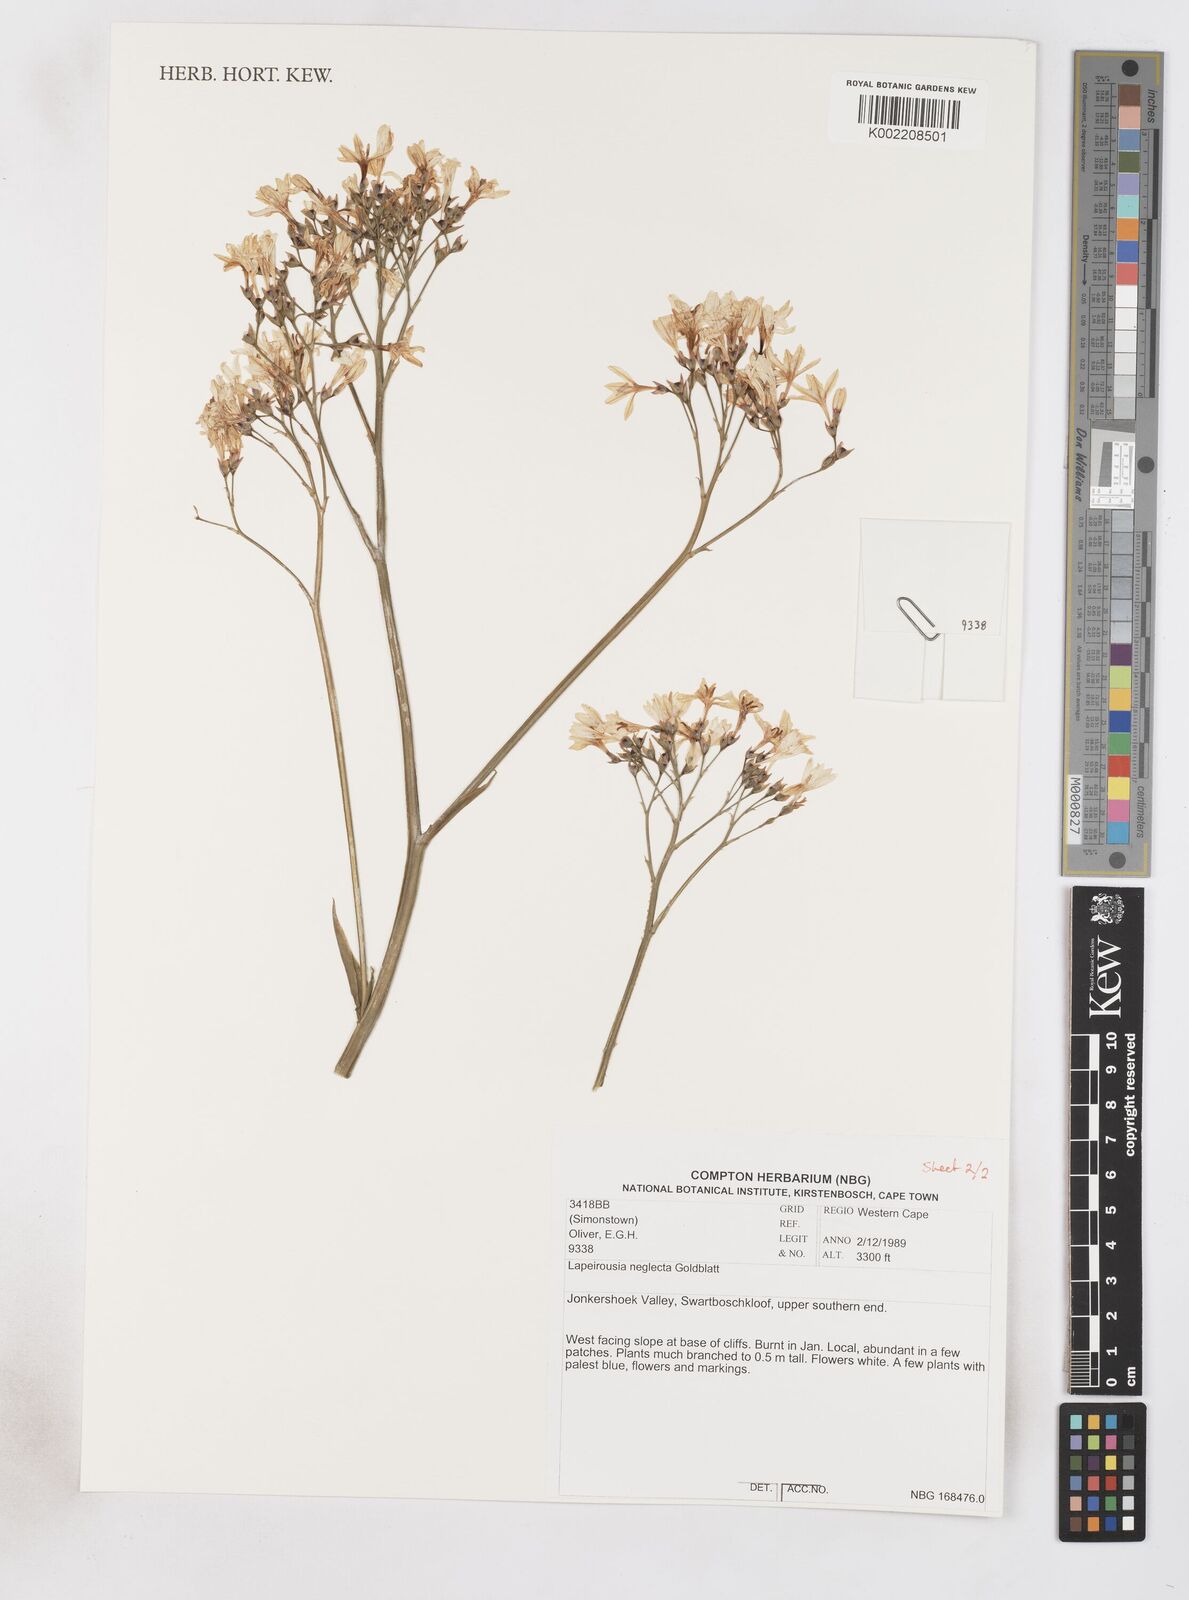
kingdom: Plantae
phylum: Tracheophyta
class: Liliopsida
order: Asparagales
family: Iridaceae
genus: Schizorhiza
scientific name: Schizorhiza neglecta
